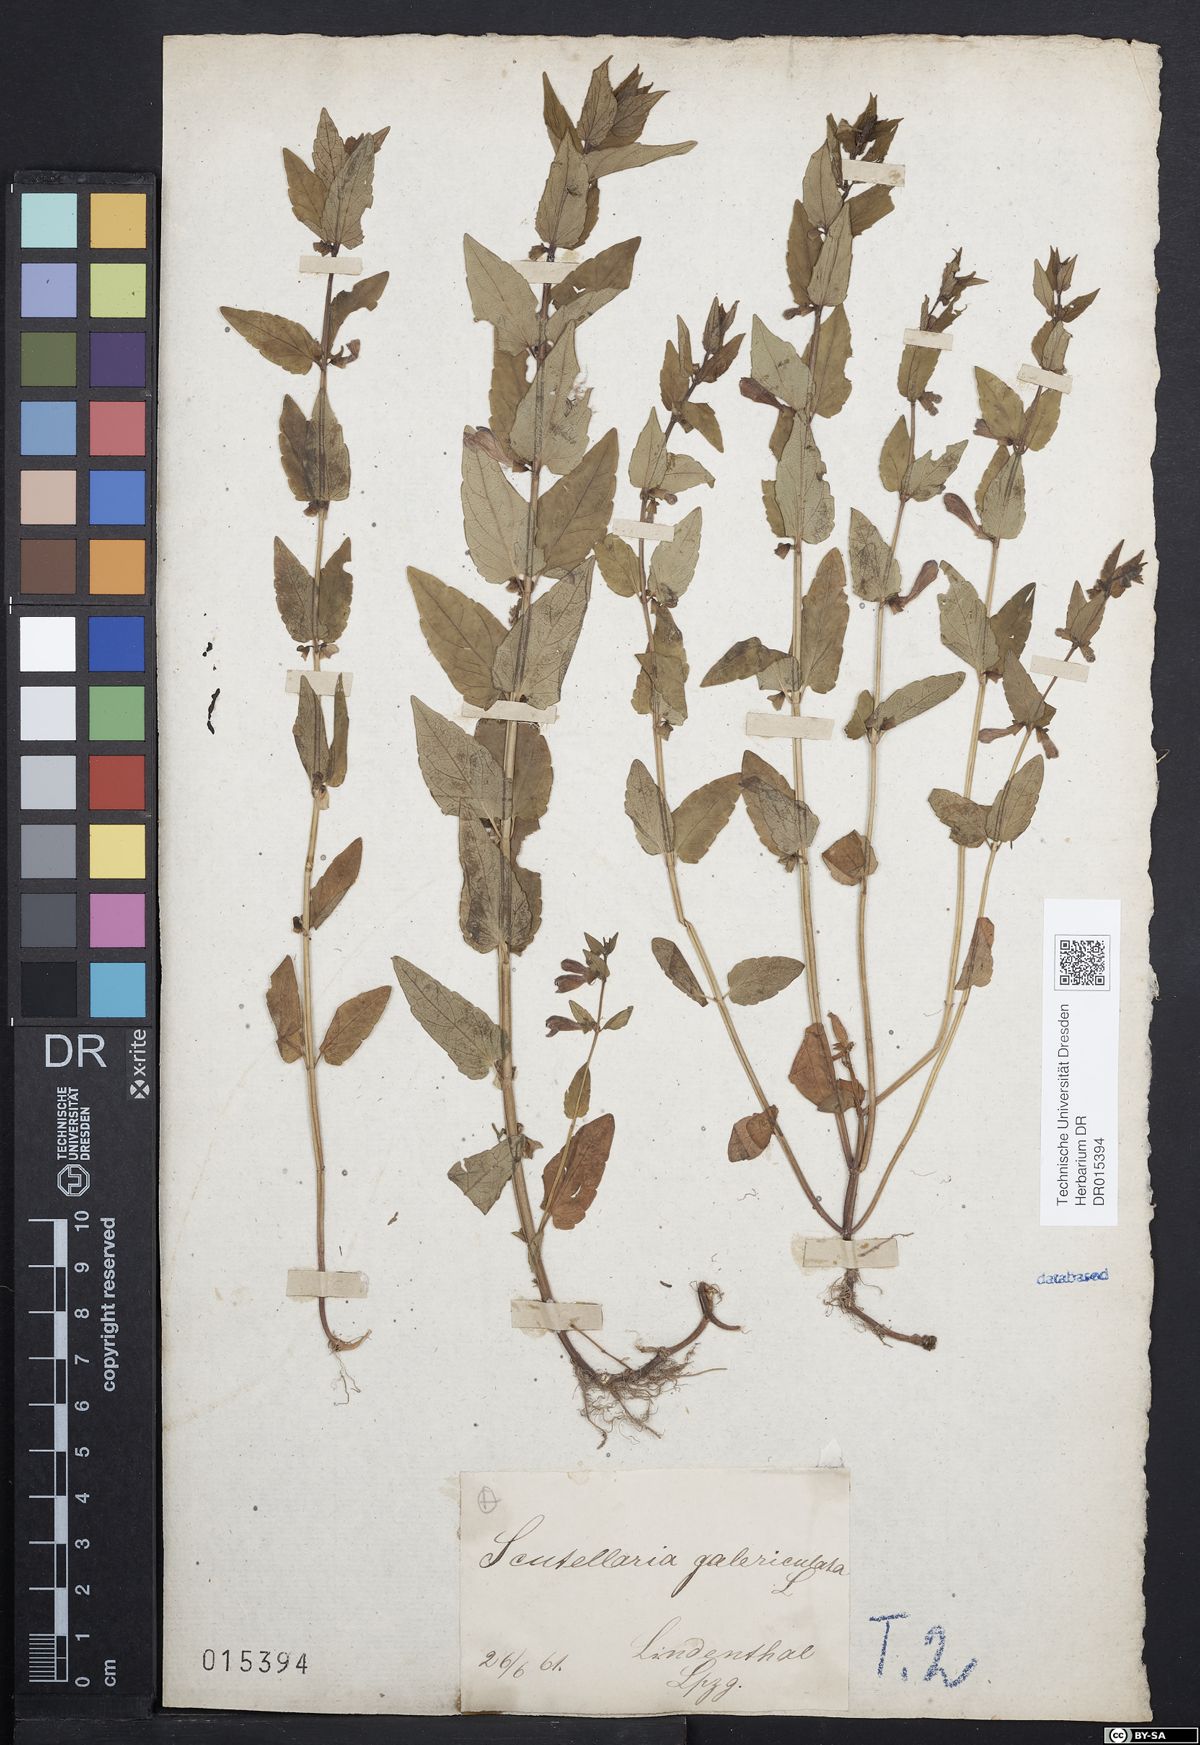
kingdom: Plantae
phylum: Tracheophyta
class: Magnoliopsida
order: Lamiales
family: Lamiaceae
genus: Scutellaria
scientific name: Scutellaria galericulata
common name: Skullcap
